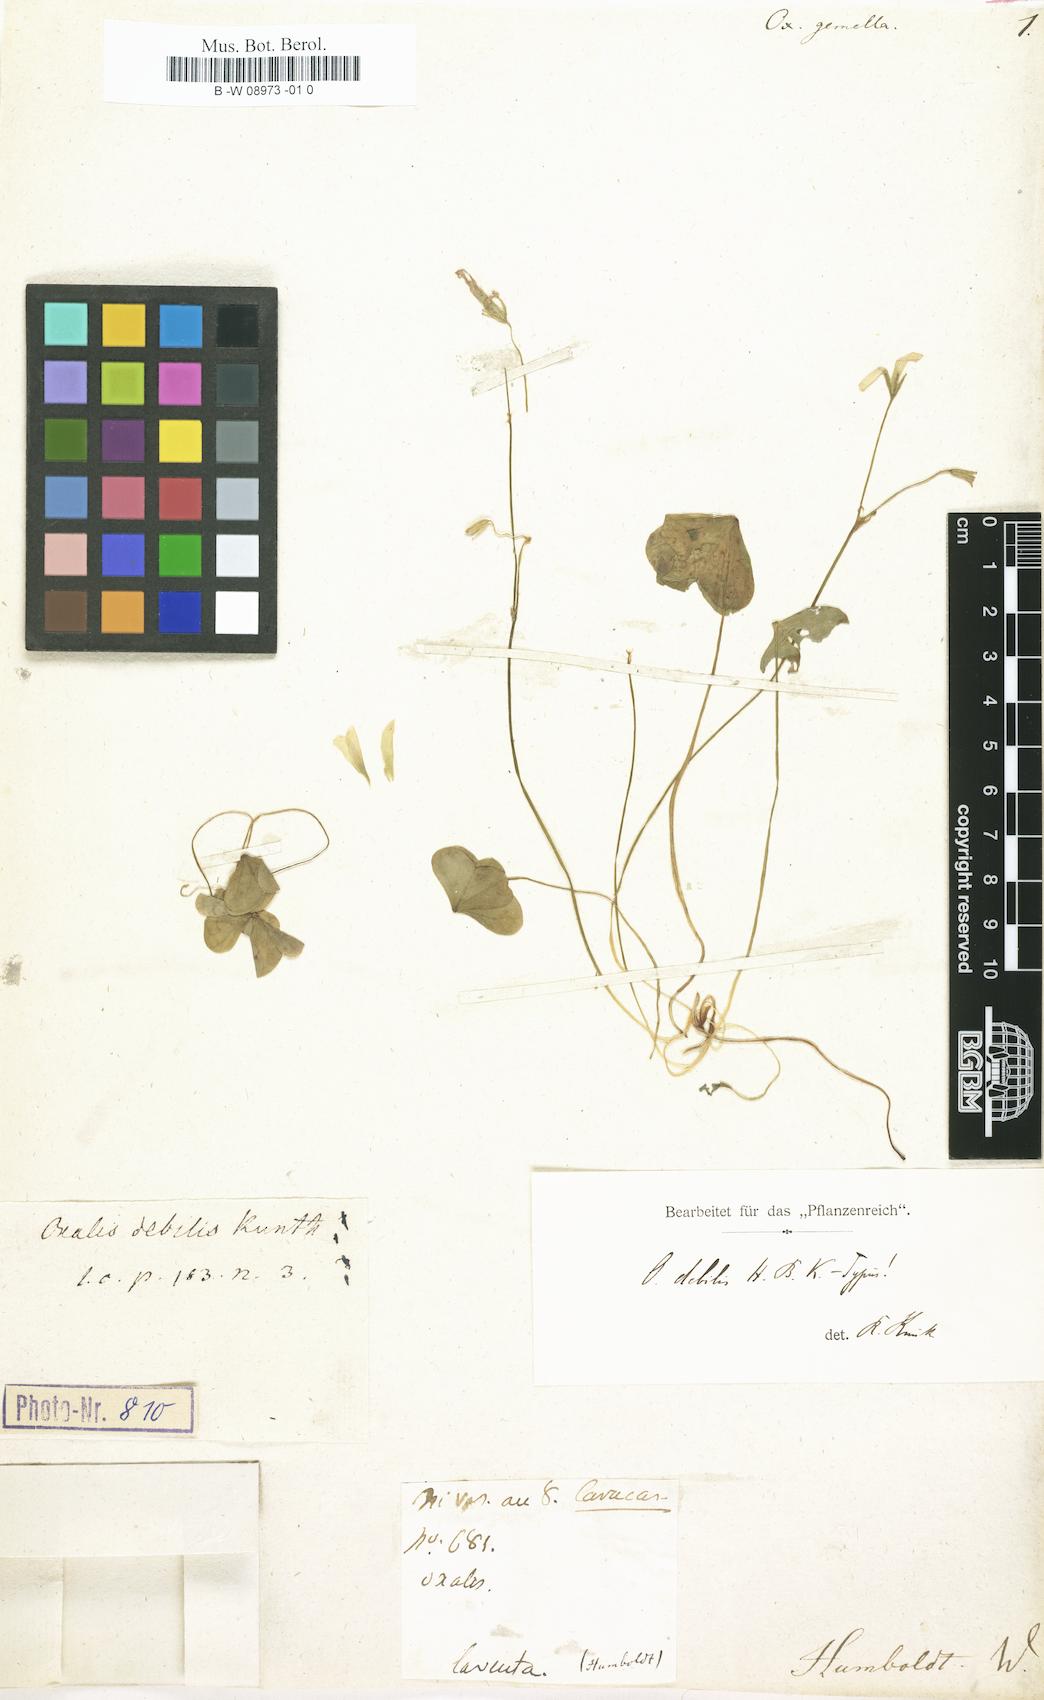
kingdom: Plantae
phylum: Tracheophyta
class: Magnoliopsida
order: Oxalidales
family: Oxalidaceae
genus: Oxalis
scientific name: Oxalis debilis
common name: Large-flowered pink-sorrel
